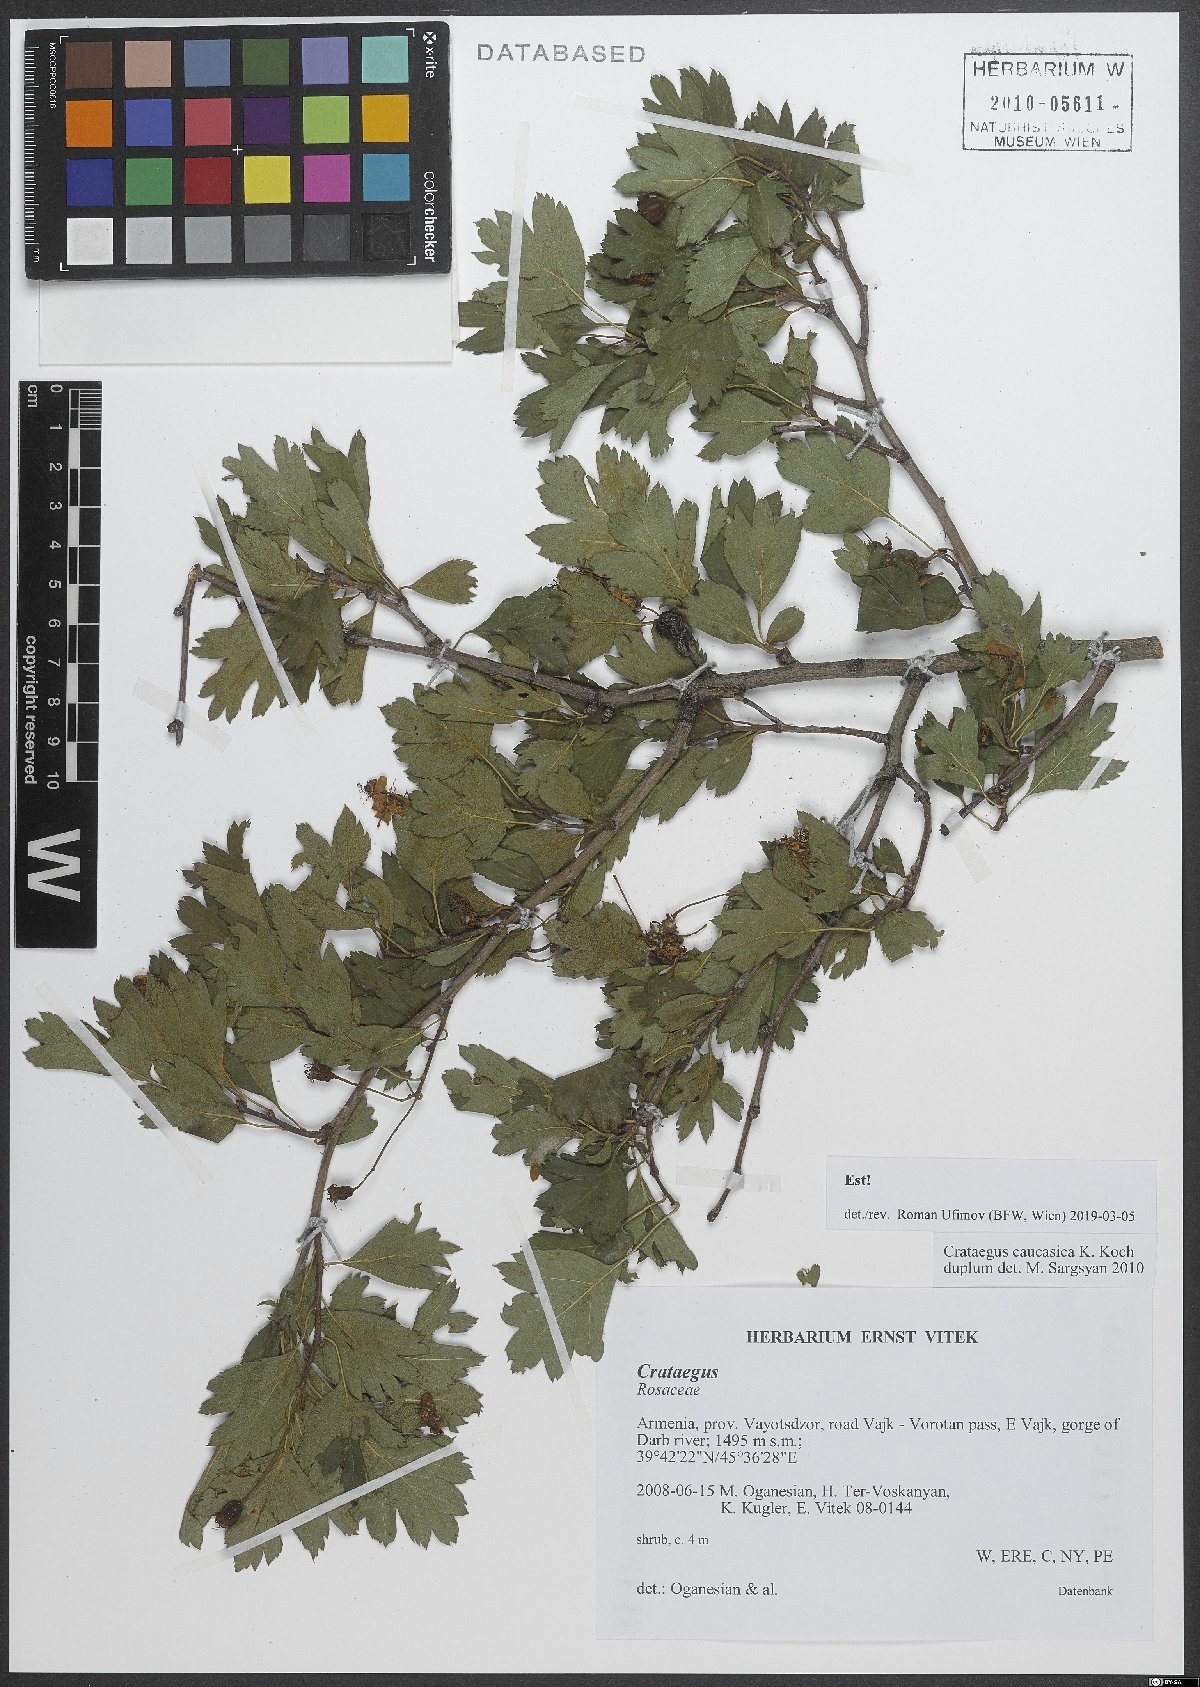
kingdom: Plantae
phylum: Tracheophyta
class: Magnoliopsida
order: Rosales
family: Rosaceae
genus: Crataegus
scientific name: Crataegus caucasica
